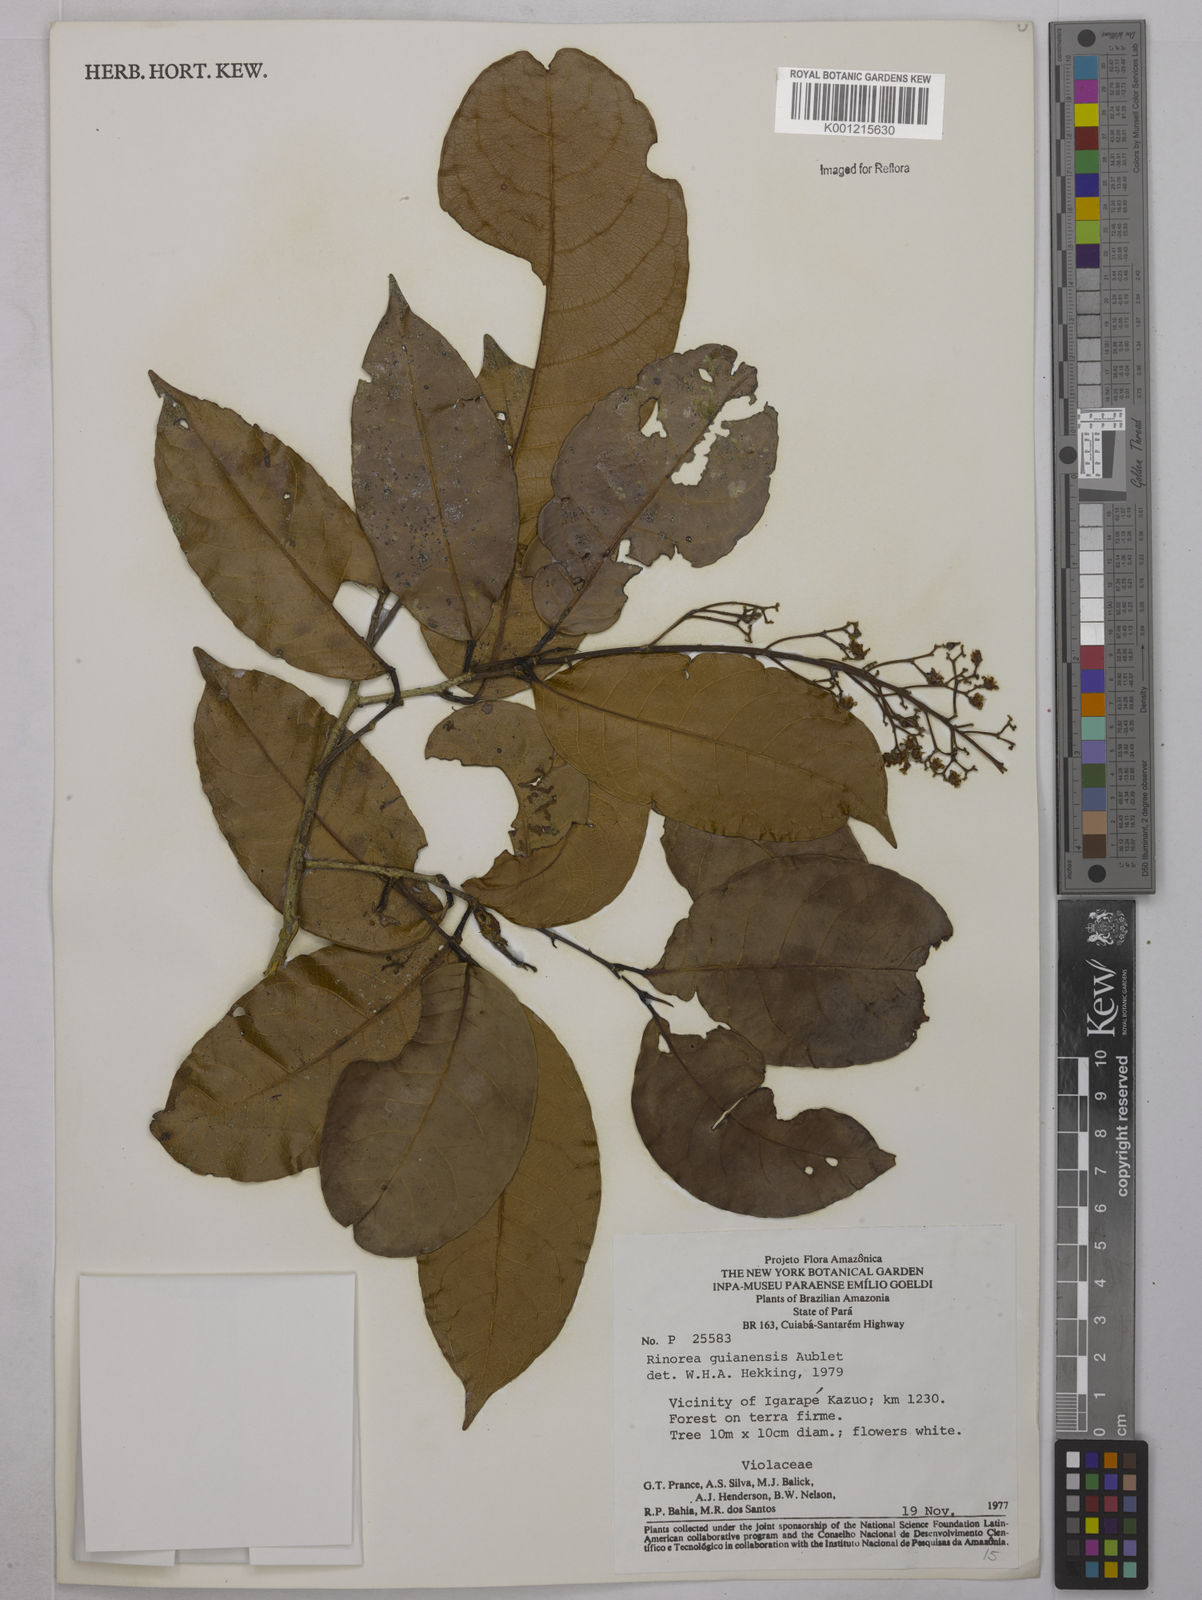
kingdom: Plantae
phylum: Tracheophyta
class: Magnoliopsida
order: Malpighiales
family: Violaceae
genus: Rinorea
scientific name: Rinorea guianensis
